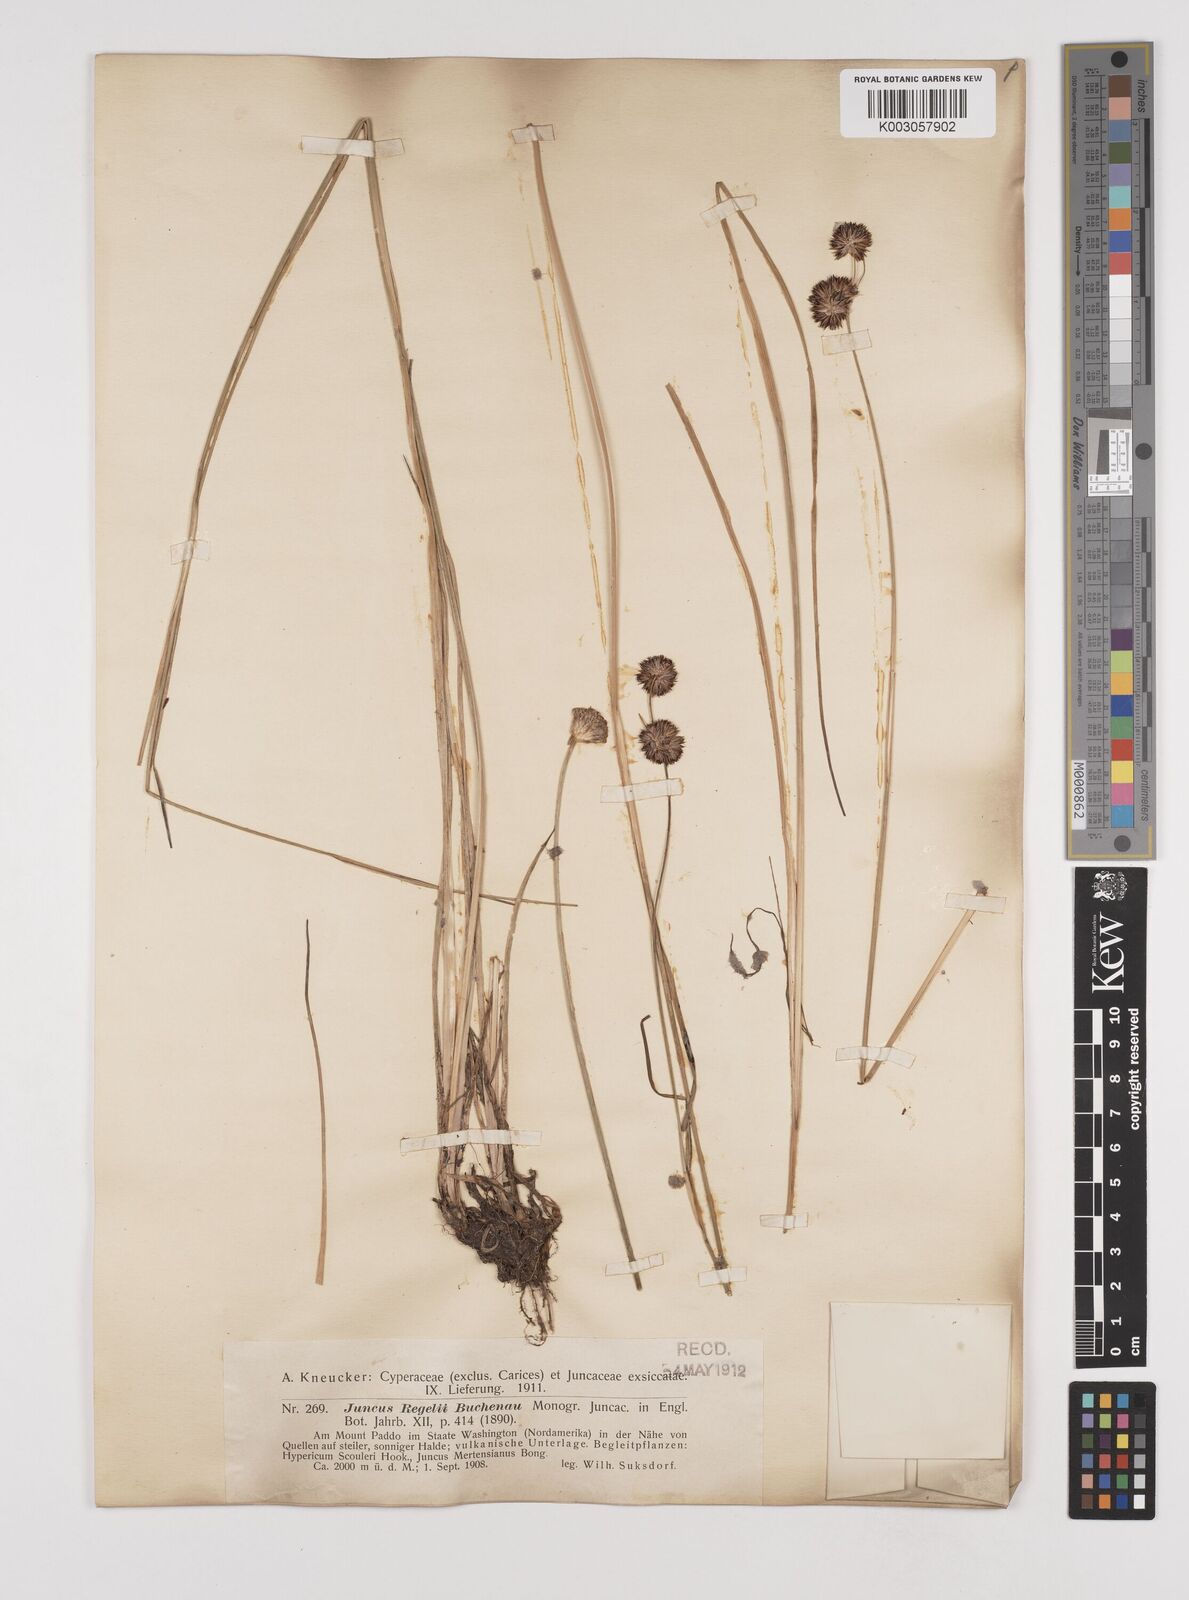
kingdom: Plantae
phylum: Tracheophyta
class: Liliopsida
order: Poales
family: Juncaceae
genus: Juncus
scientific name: Juncus regelii
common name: Regel's rush
